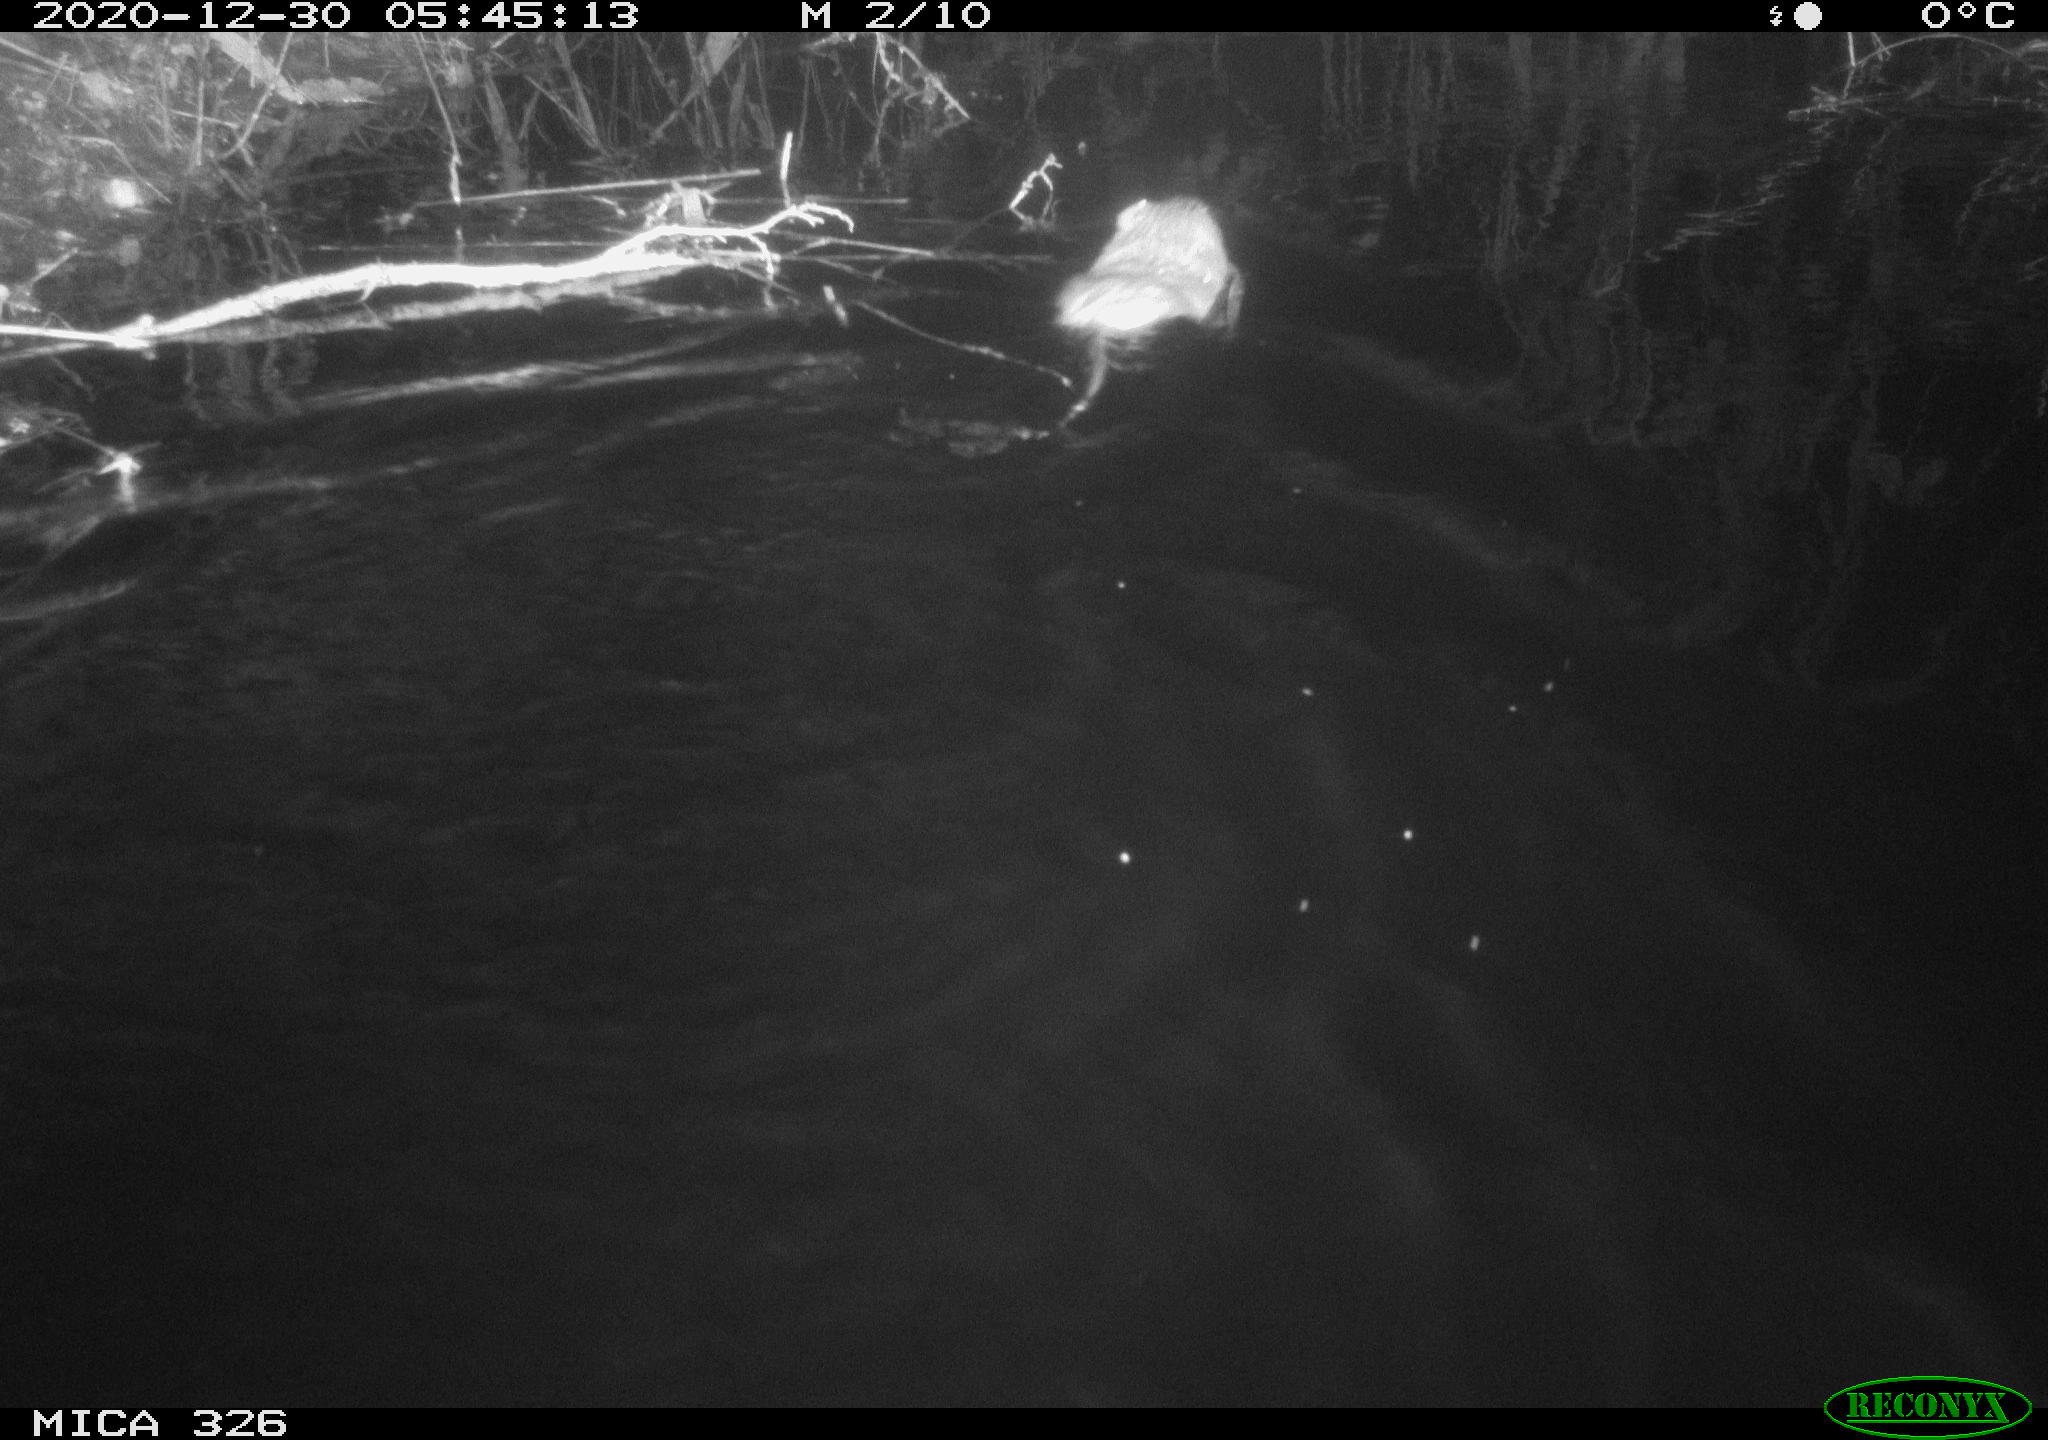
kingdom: Animalia
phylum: Chordata
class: Mammalia
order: Rodentia
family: Cricetidae
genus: Ondatra
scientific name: Ondatra zibethicus
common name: Muskrat
